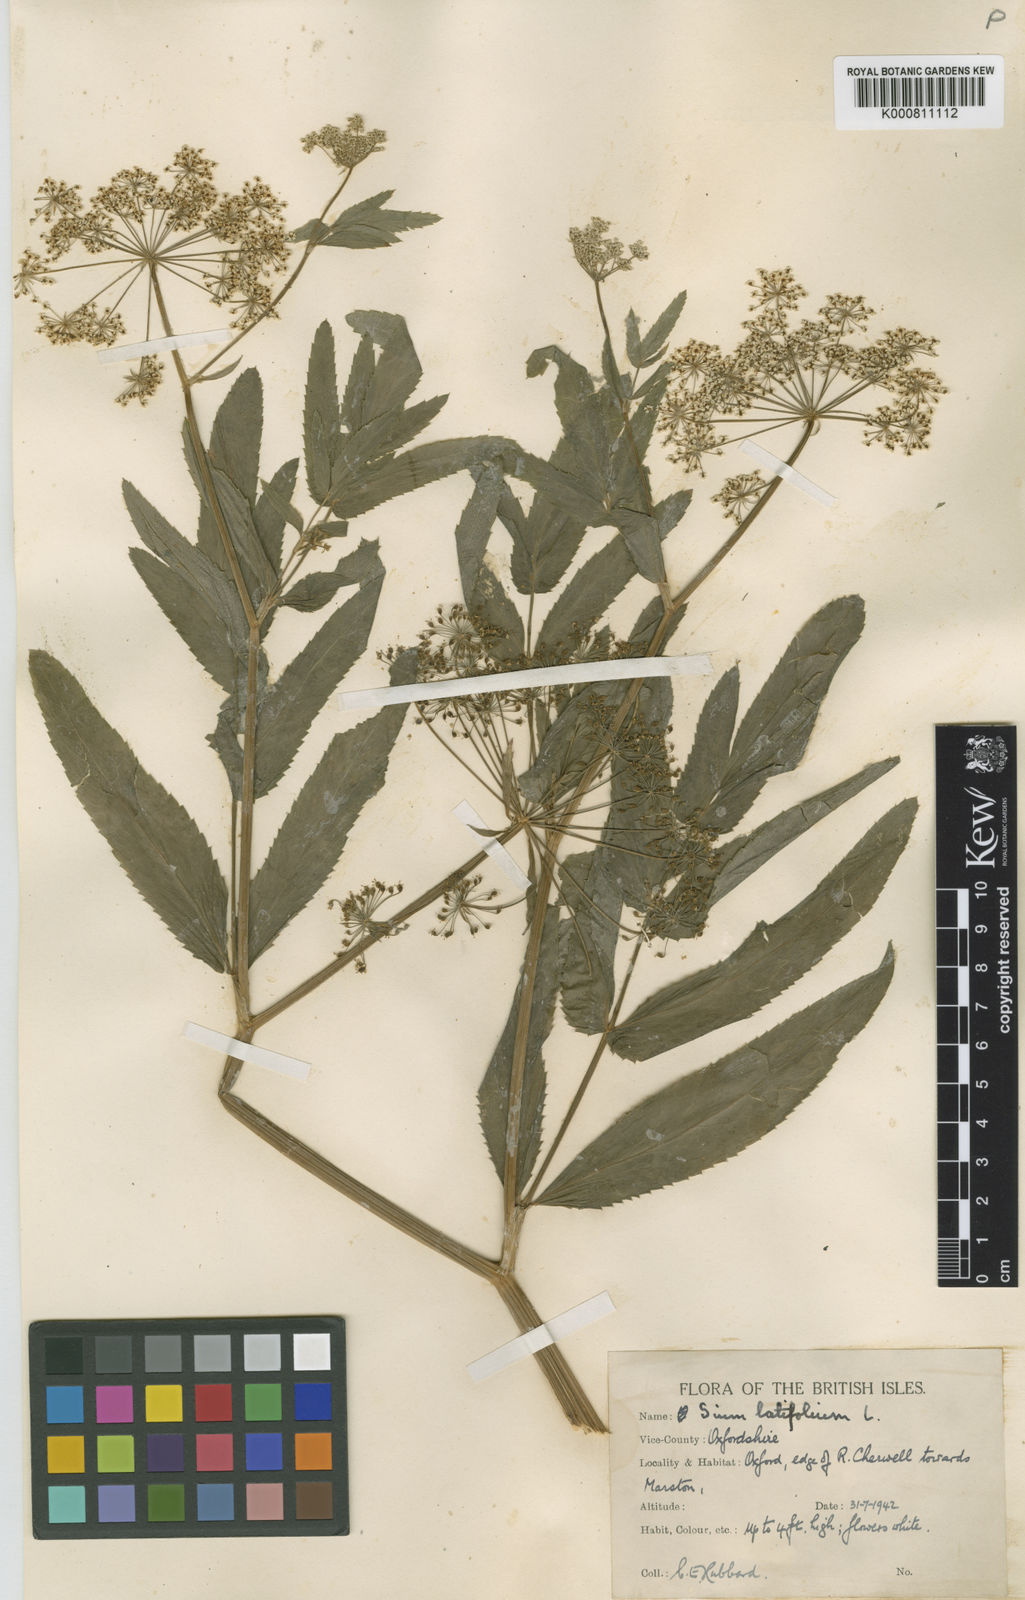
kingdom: Plantae
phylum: Tracheophyta
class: Magnoliopsida
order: Apiales
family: Apiaceae
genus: Sium
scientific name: Sium latifolium
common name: Greater water-parsnip
